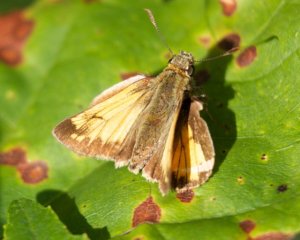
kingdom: Animalia
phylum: Arthropoda
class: Insecta
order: Lepidoptera
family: Hesperiidae
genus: Lon
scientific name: Lon hobomok
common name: Hobomok Skipper
